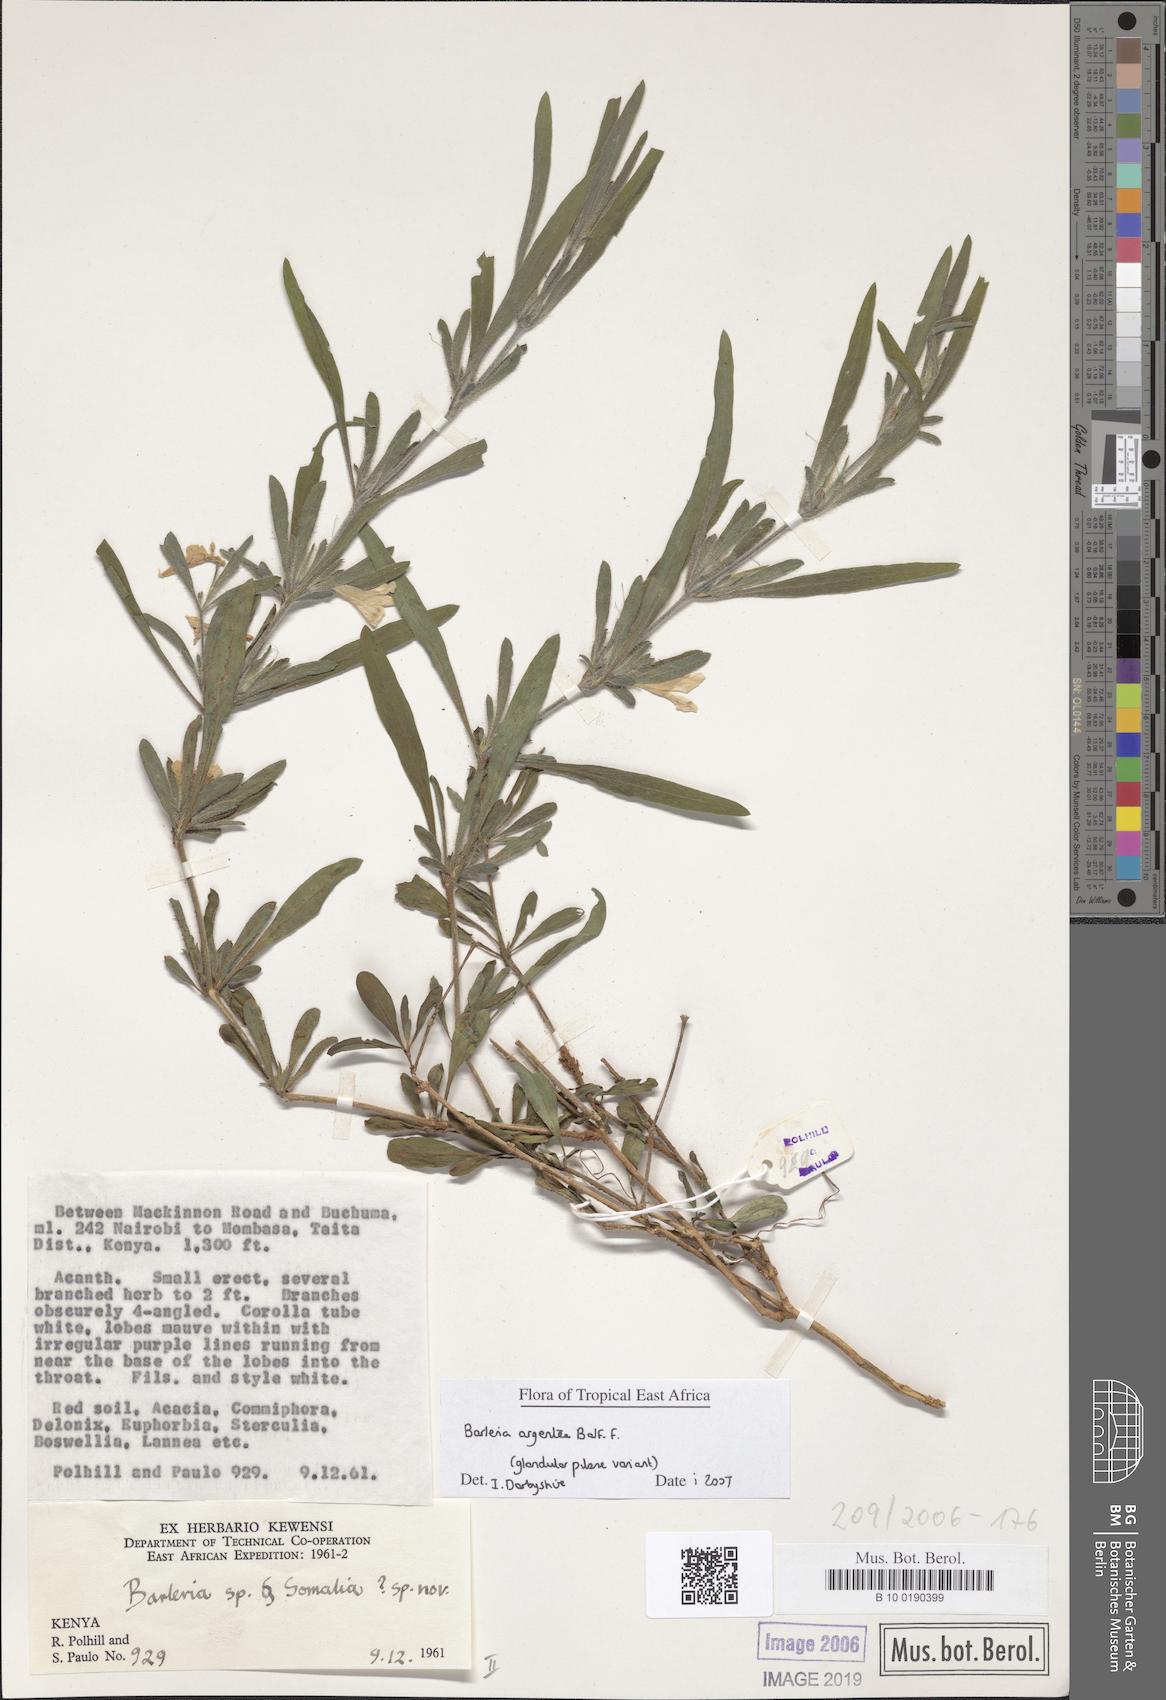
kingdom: Plantae
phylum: Tracheophyta
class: Magnoliopsida
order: Lamiales
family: Acanthaceae
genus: Barleria
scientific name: Barleria
